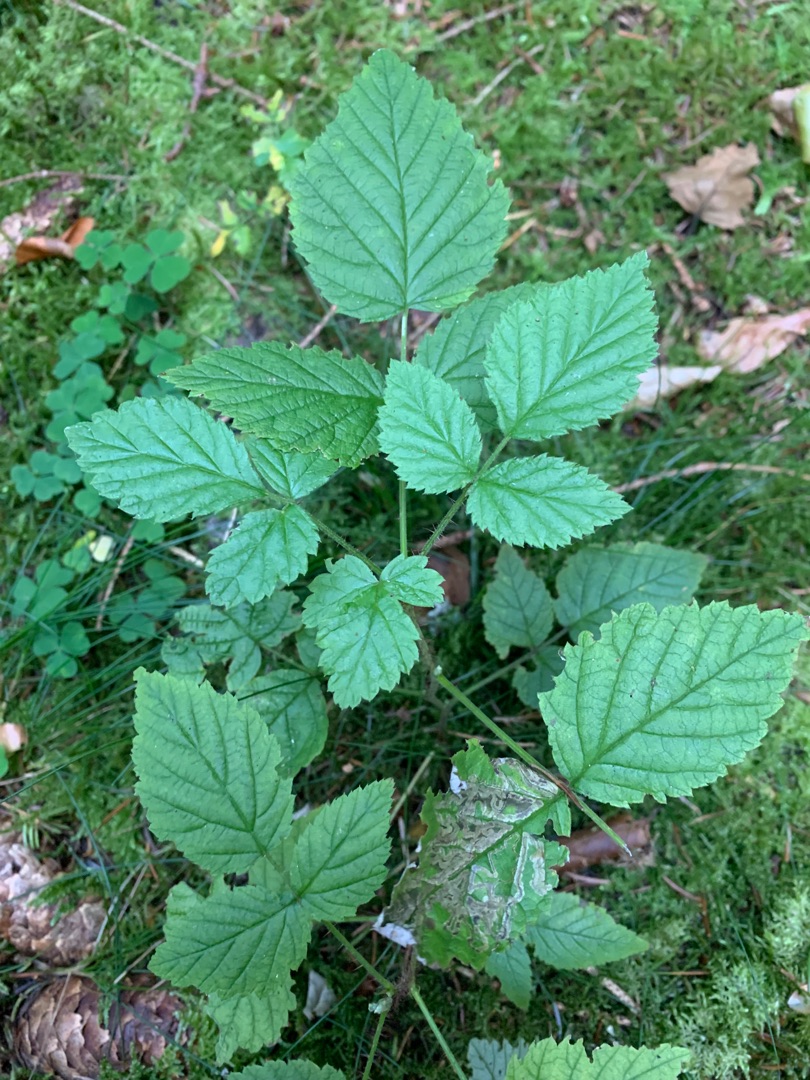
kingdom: Plantae
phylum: Tracheophyta
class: Magnoliopsida
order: Rosales
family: Rosaceae
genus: Rubus
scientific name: Rubus idaeus
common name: Hindbær
